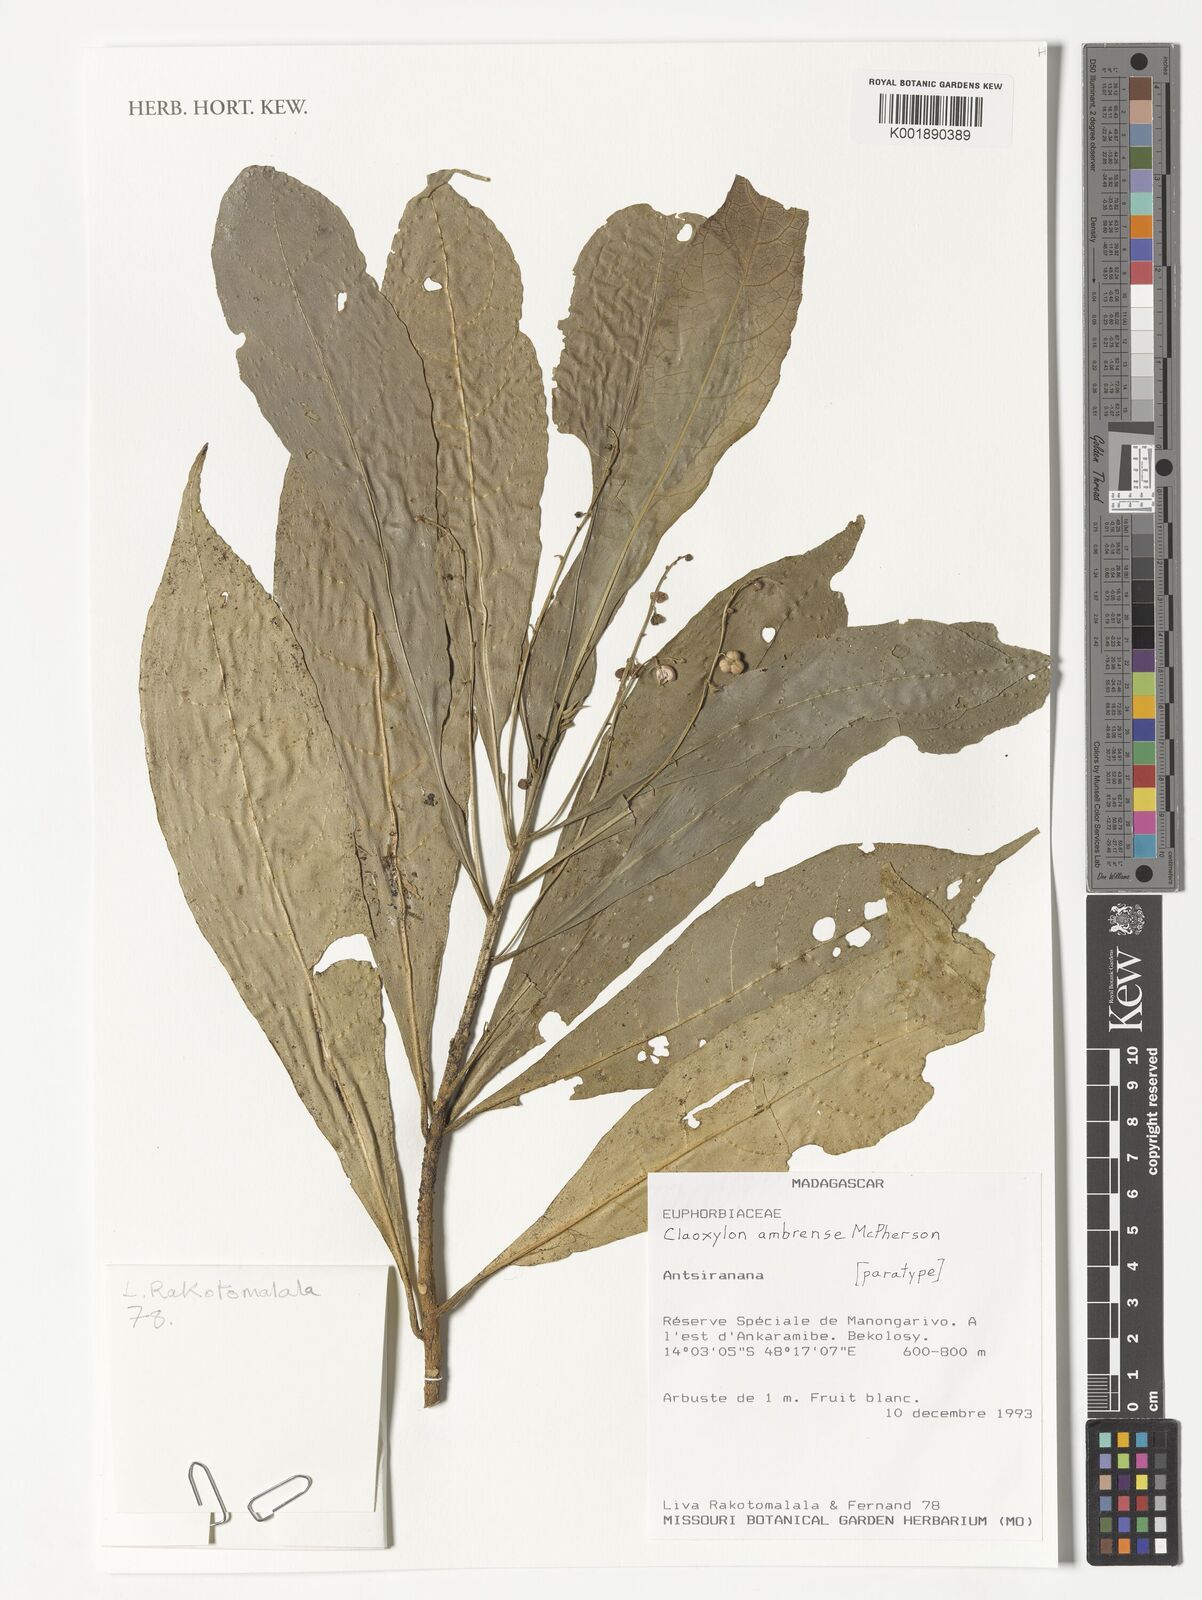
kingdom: Plantae
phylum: Tracheophyta
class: Magnoliopsida
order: Malpighiales
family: Euphorbiaceae
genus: Claoxylon
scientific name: Claoxylon ambrense
